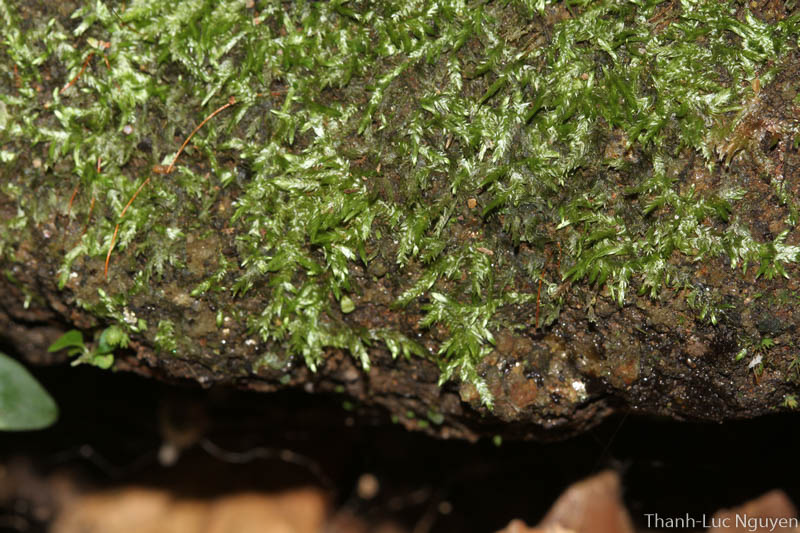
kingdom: Plantae
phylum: Bryophyta
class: Bryopsida
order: Hypnales
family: Hypnaceae
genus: Ectropothecium
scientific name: Ectropothecium
